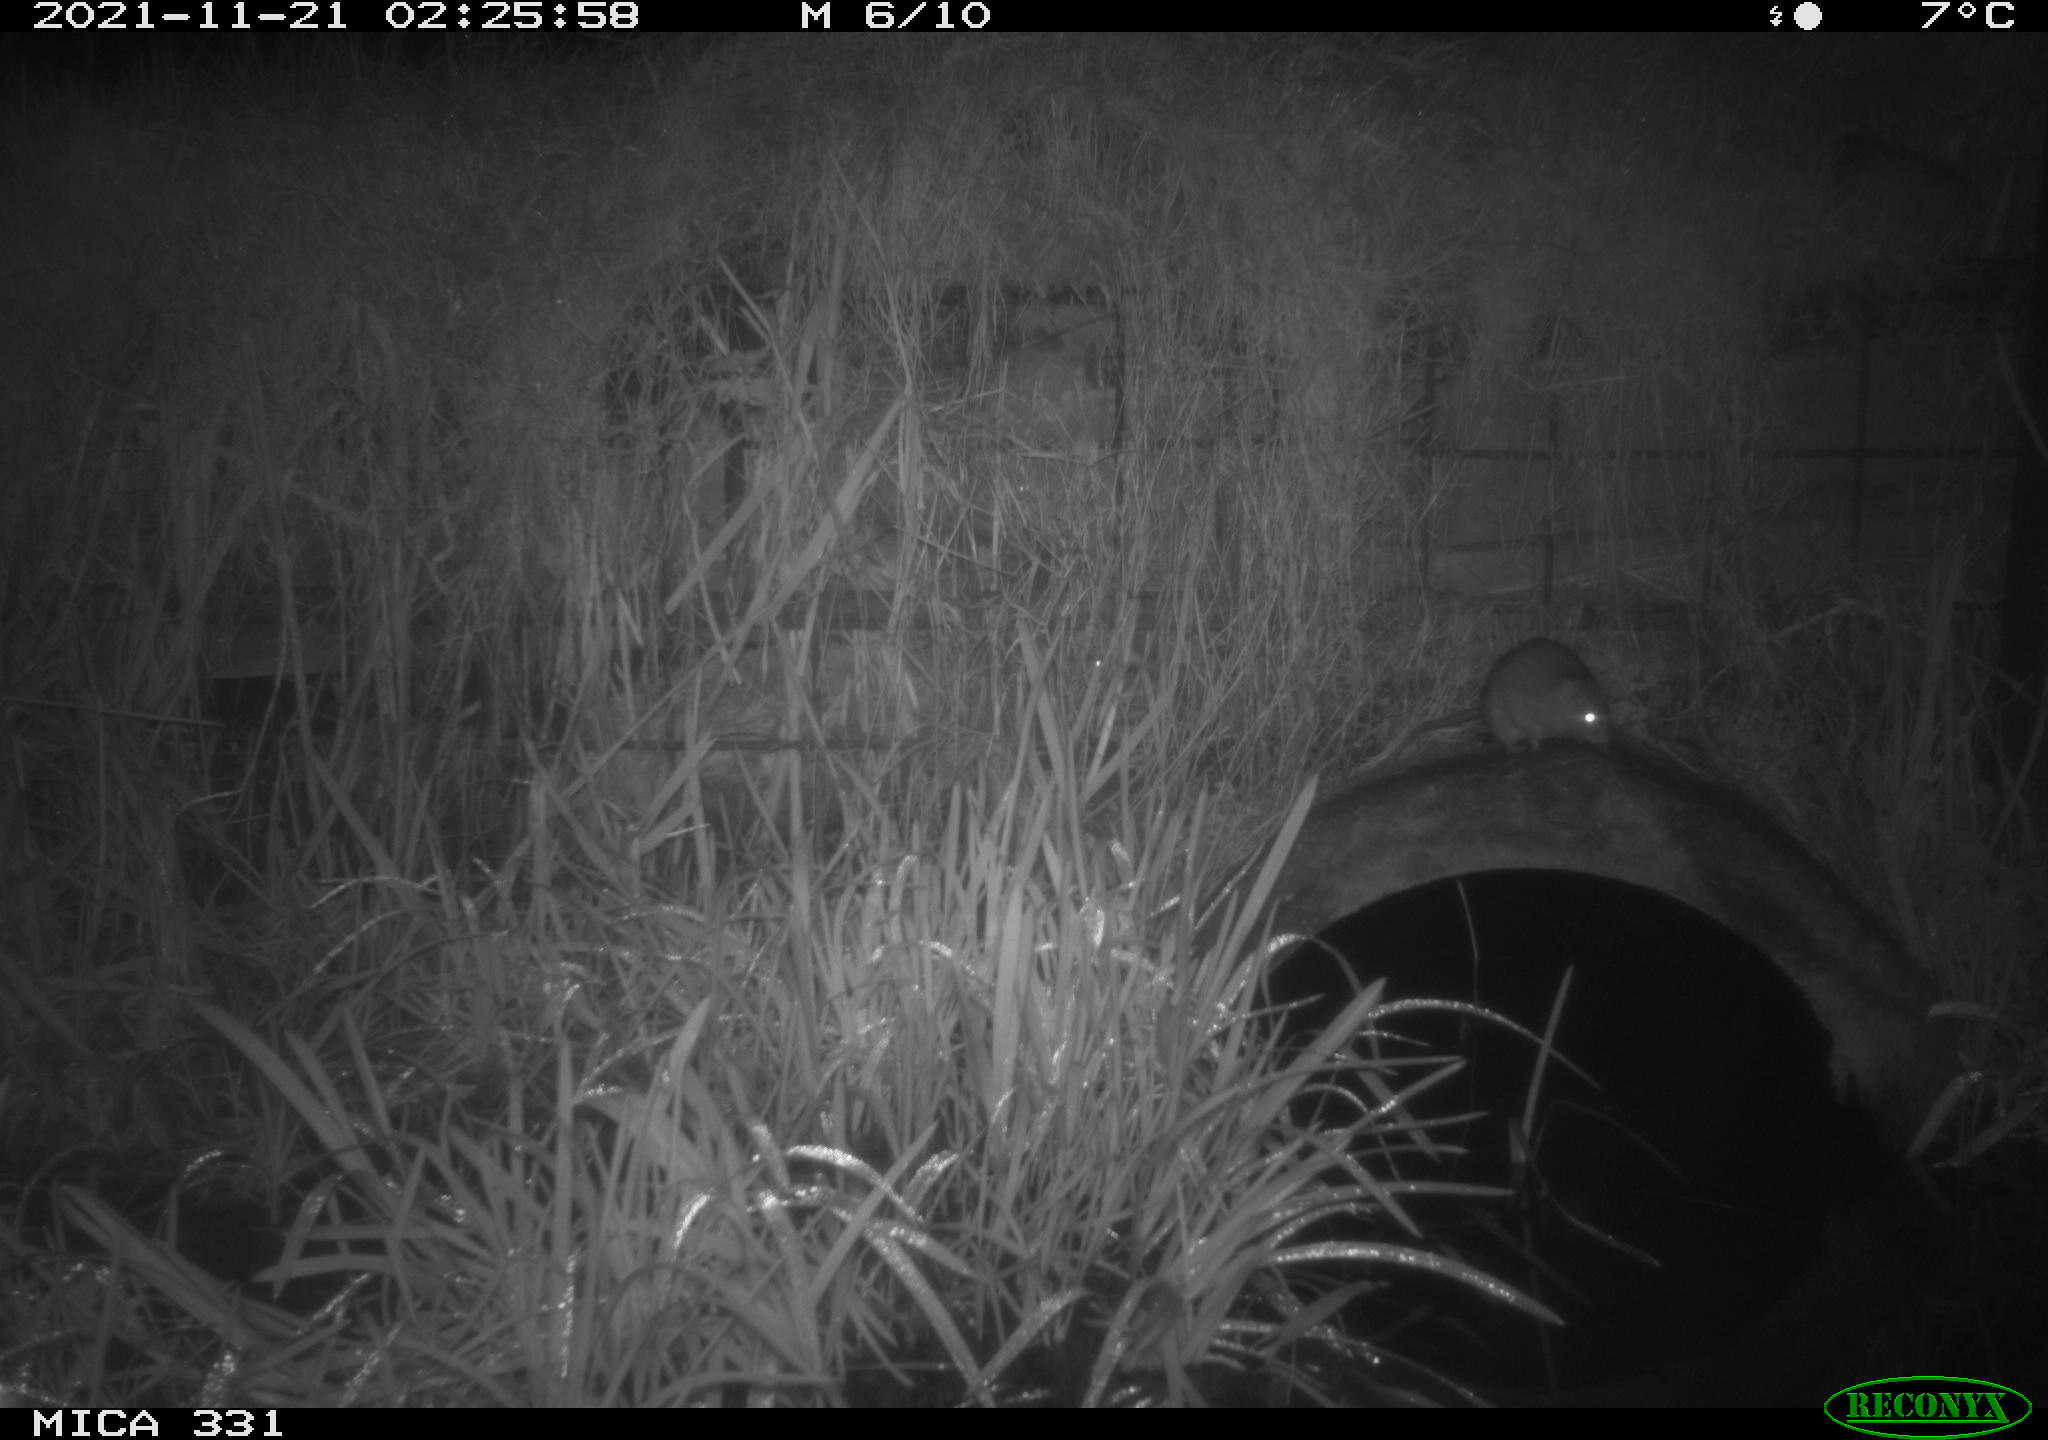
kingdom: Animalia
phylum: Chordata
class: Mammalia
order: Rodentia
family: Muridae
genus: Rattus
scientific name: Rattus norvegicus
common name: Brown rat
